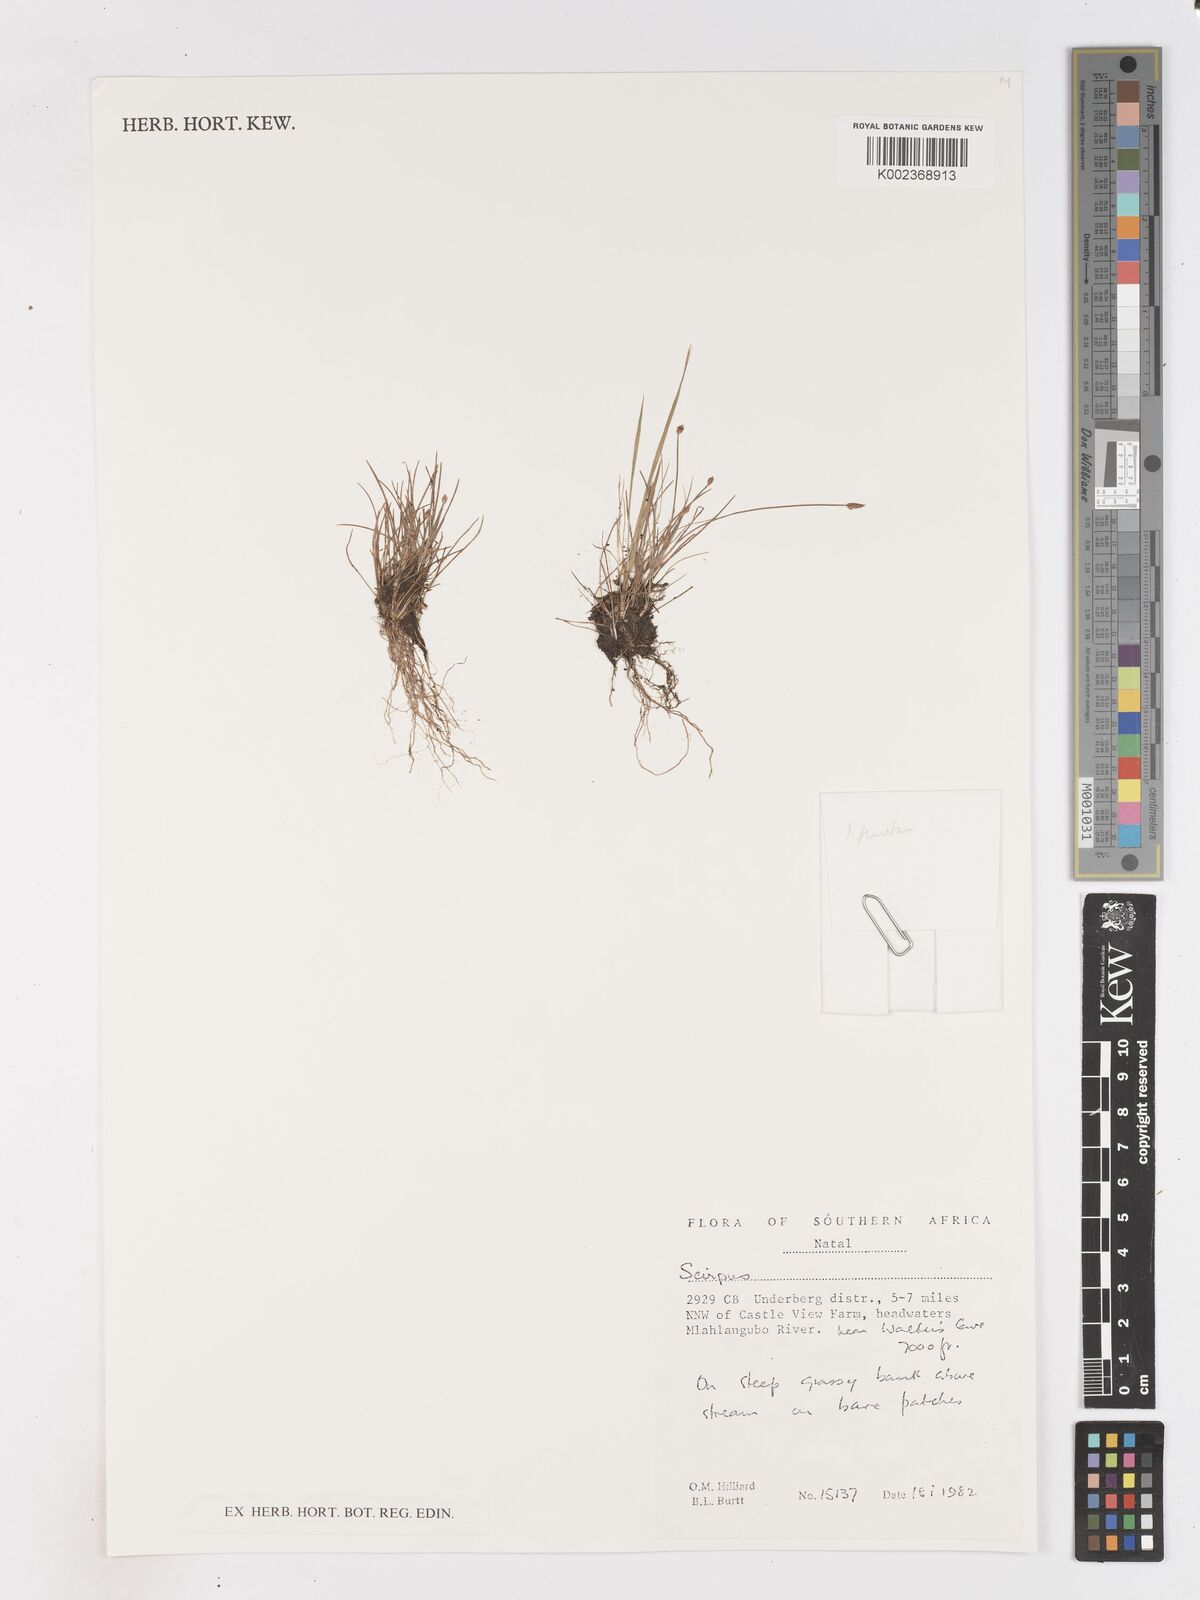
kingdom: Plantae
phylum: Tracheophyta
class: Liliopsida
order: Poales
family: Cyperaceae
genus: Isolepis
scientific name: Isolepis
